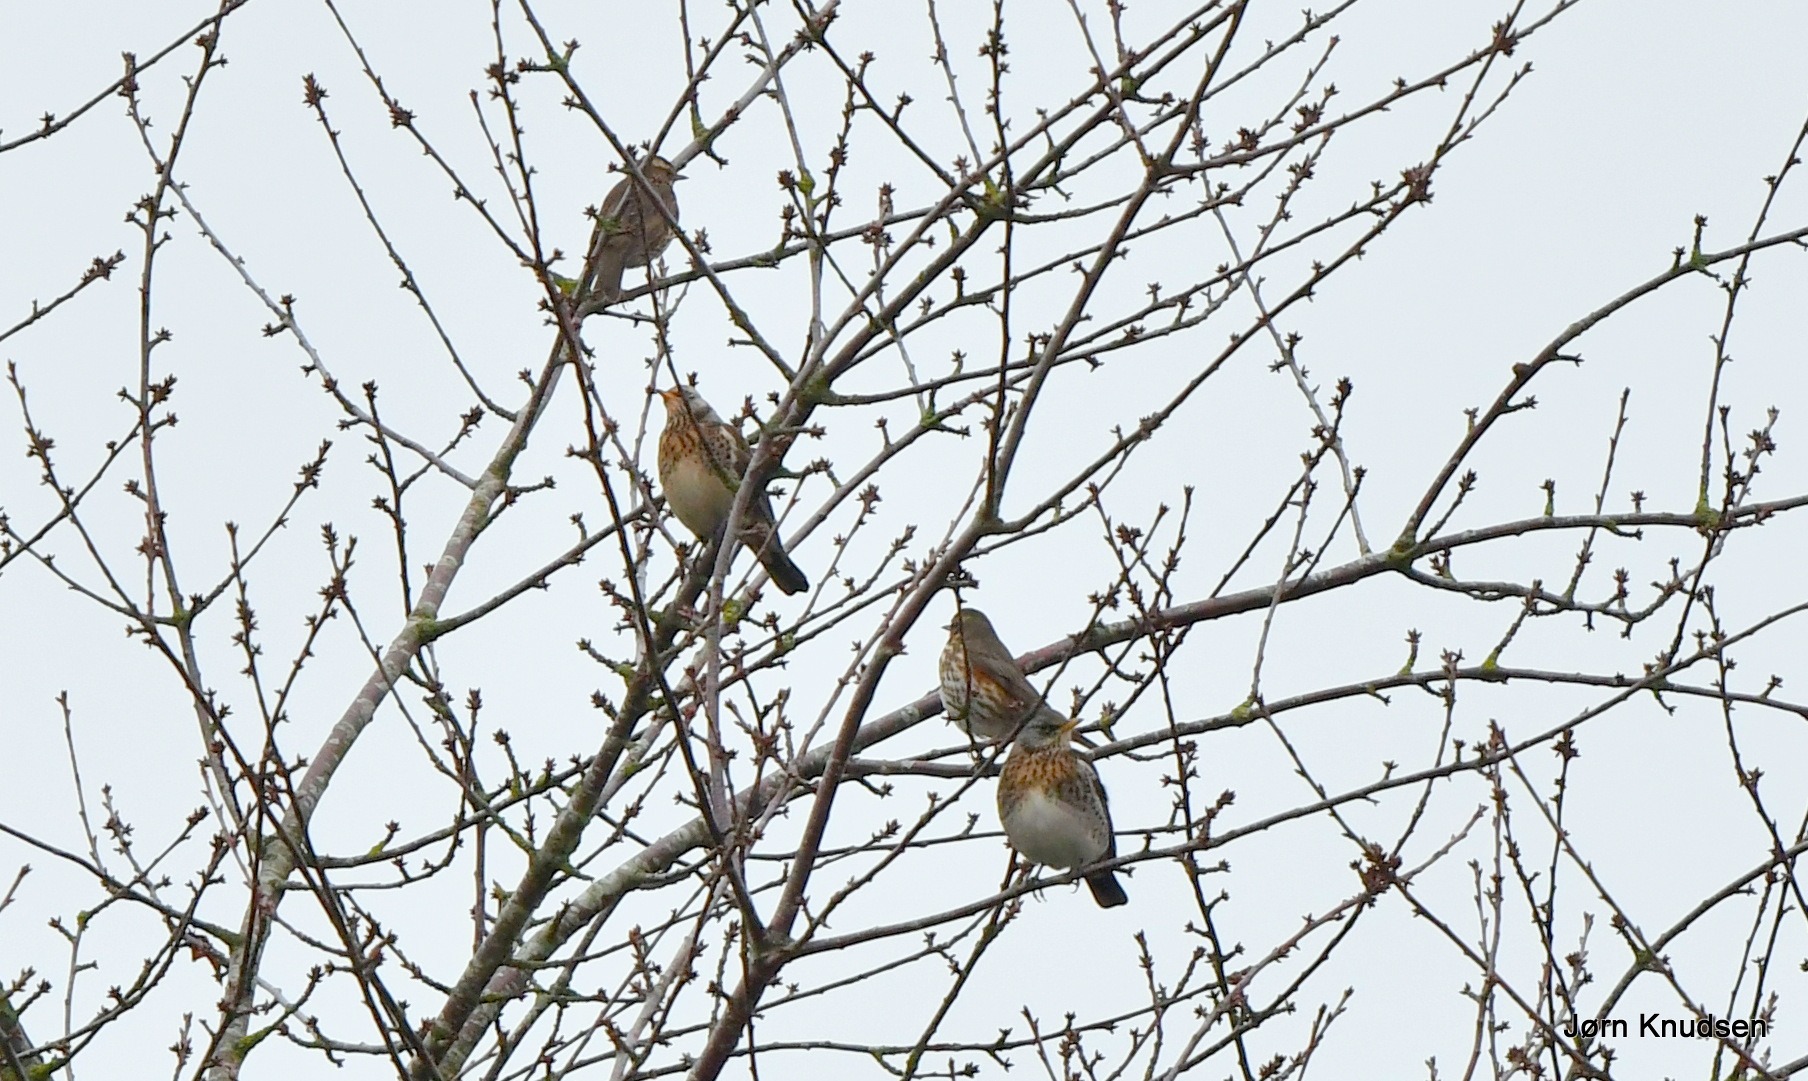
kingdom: Animalia
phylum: Chordata
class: Aves
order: Passeriformes
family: Turdidae
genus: Turdus
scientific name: Turdus pilaris
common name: Sjagger
